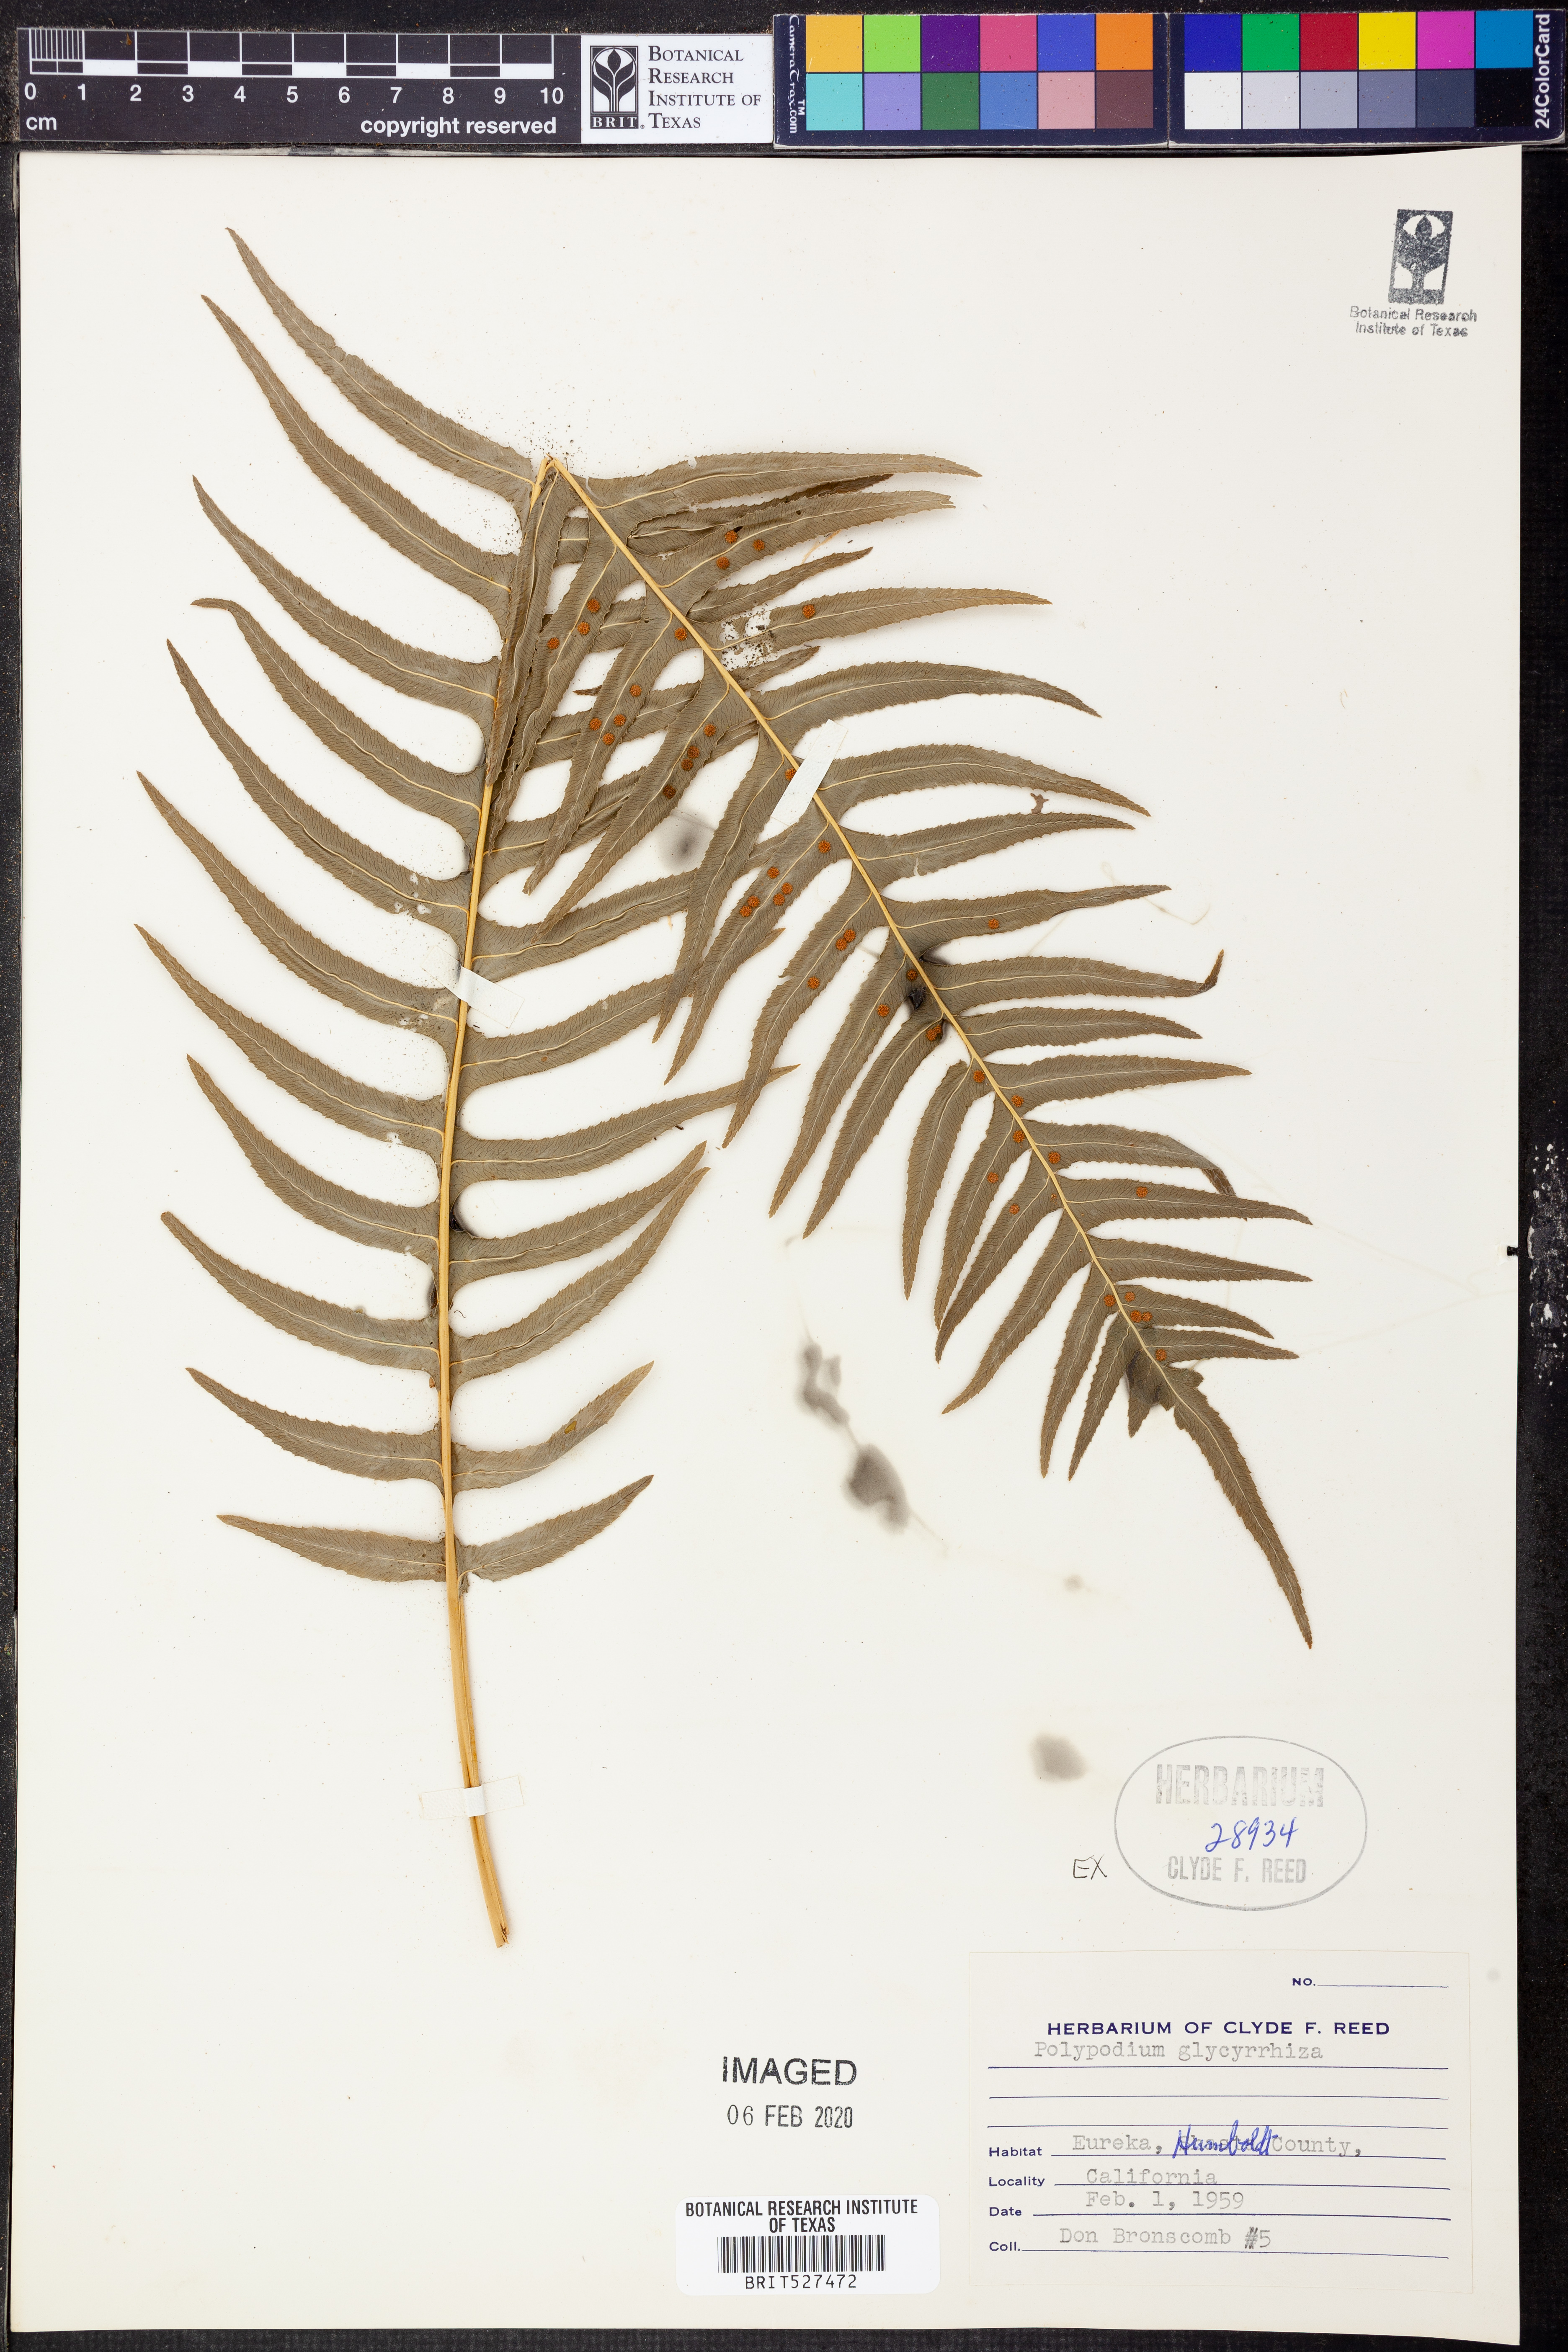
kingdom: Plantae
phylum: Tracheophyta
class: Polypodiopsida
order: Polypodiales
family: Polypodiaceae
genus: Polypodium
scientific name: Polypodium glycyrrhiza
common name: Licorice fern
